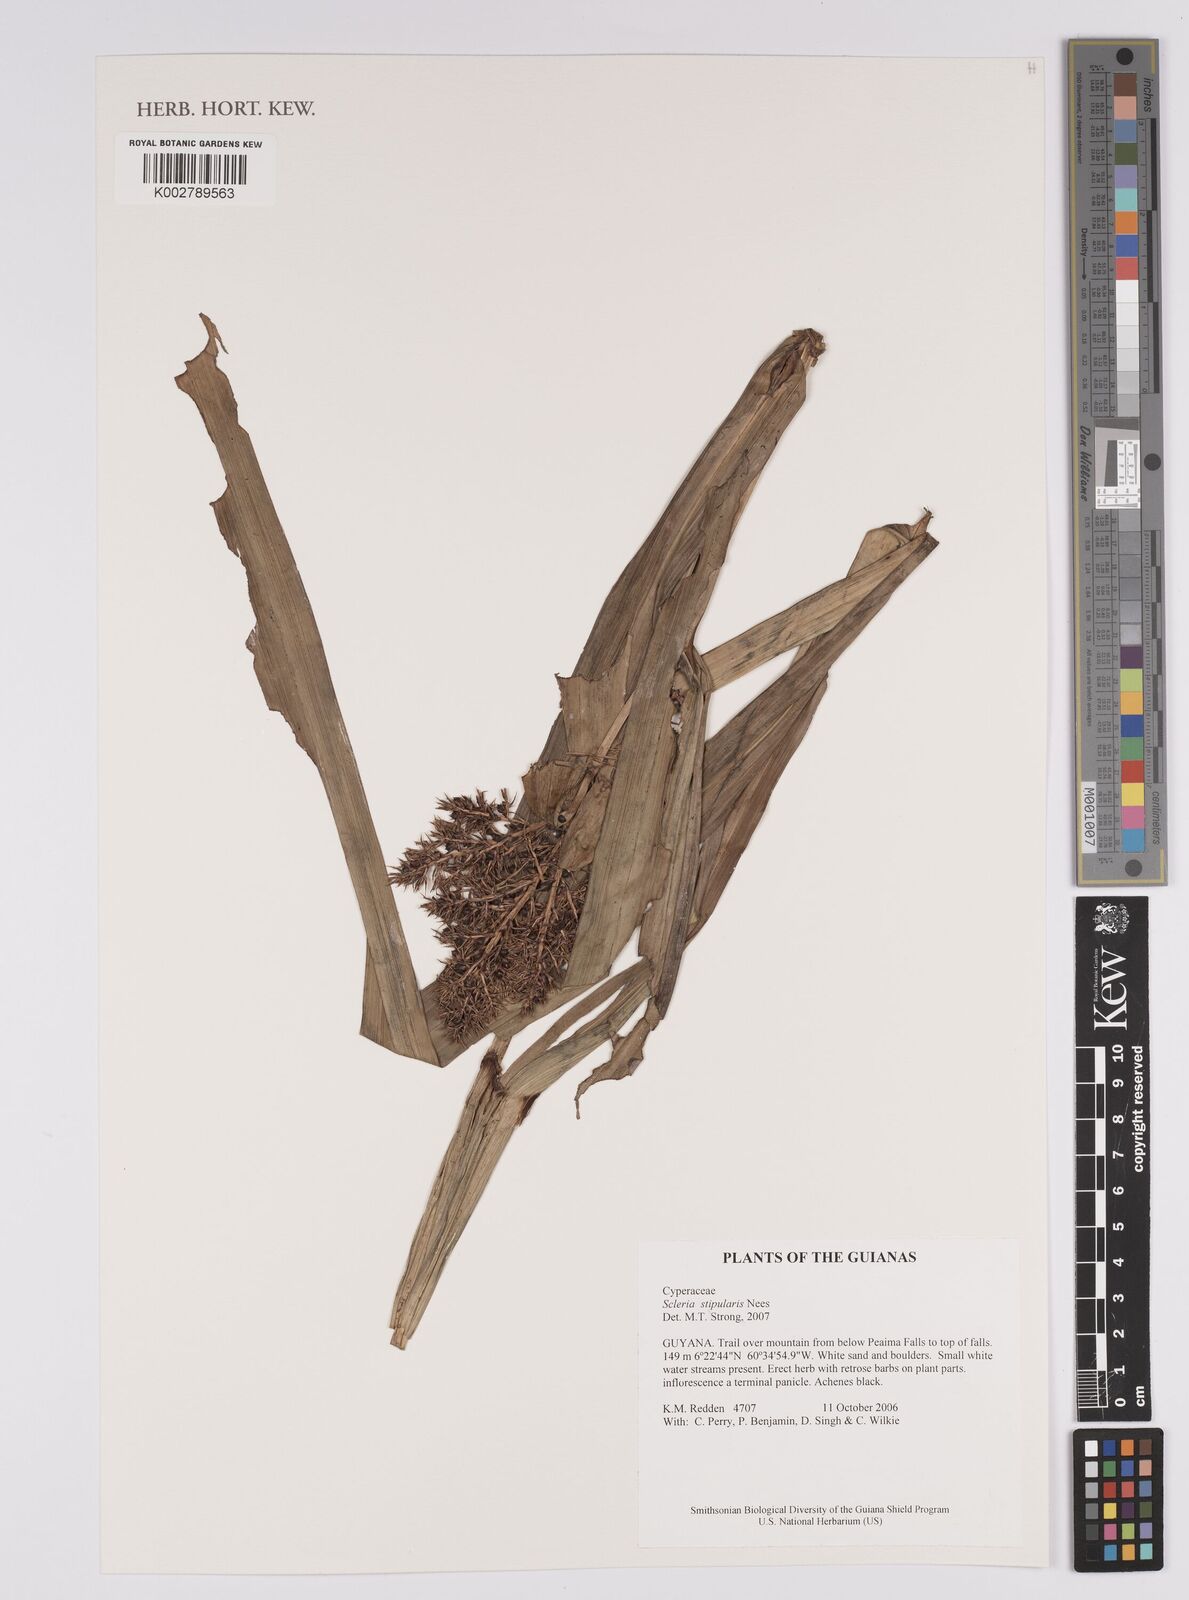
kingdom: Plantae
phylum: Tracheophyta
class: Liliopsida
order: Poales
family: Cyperaceae
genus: Scleria
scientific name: Scleria stipularis
